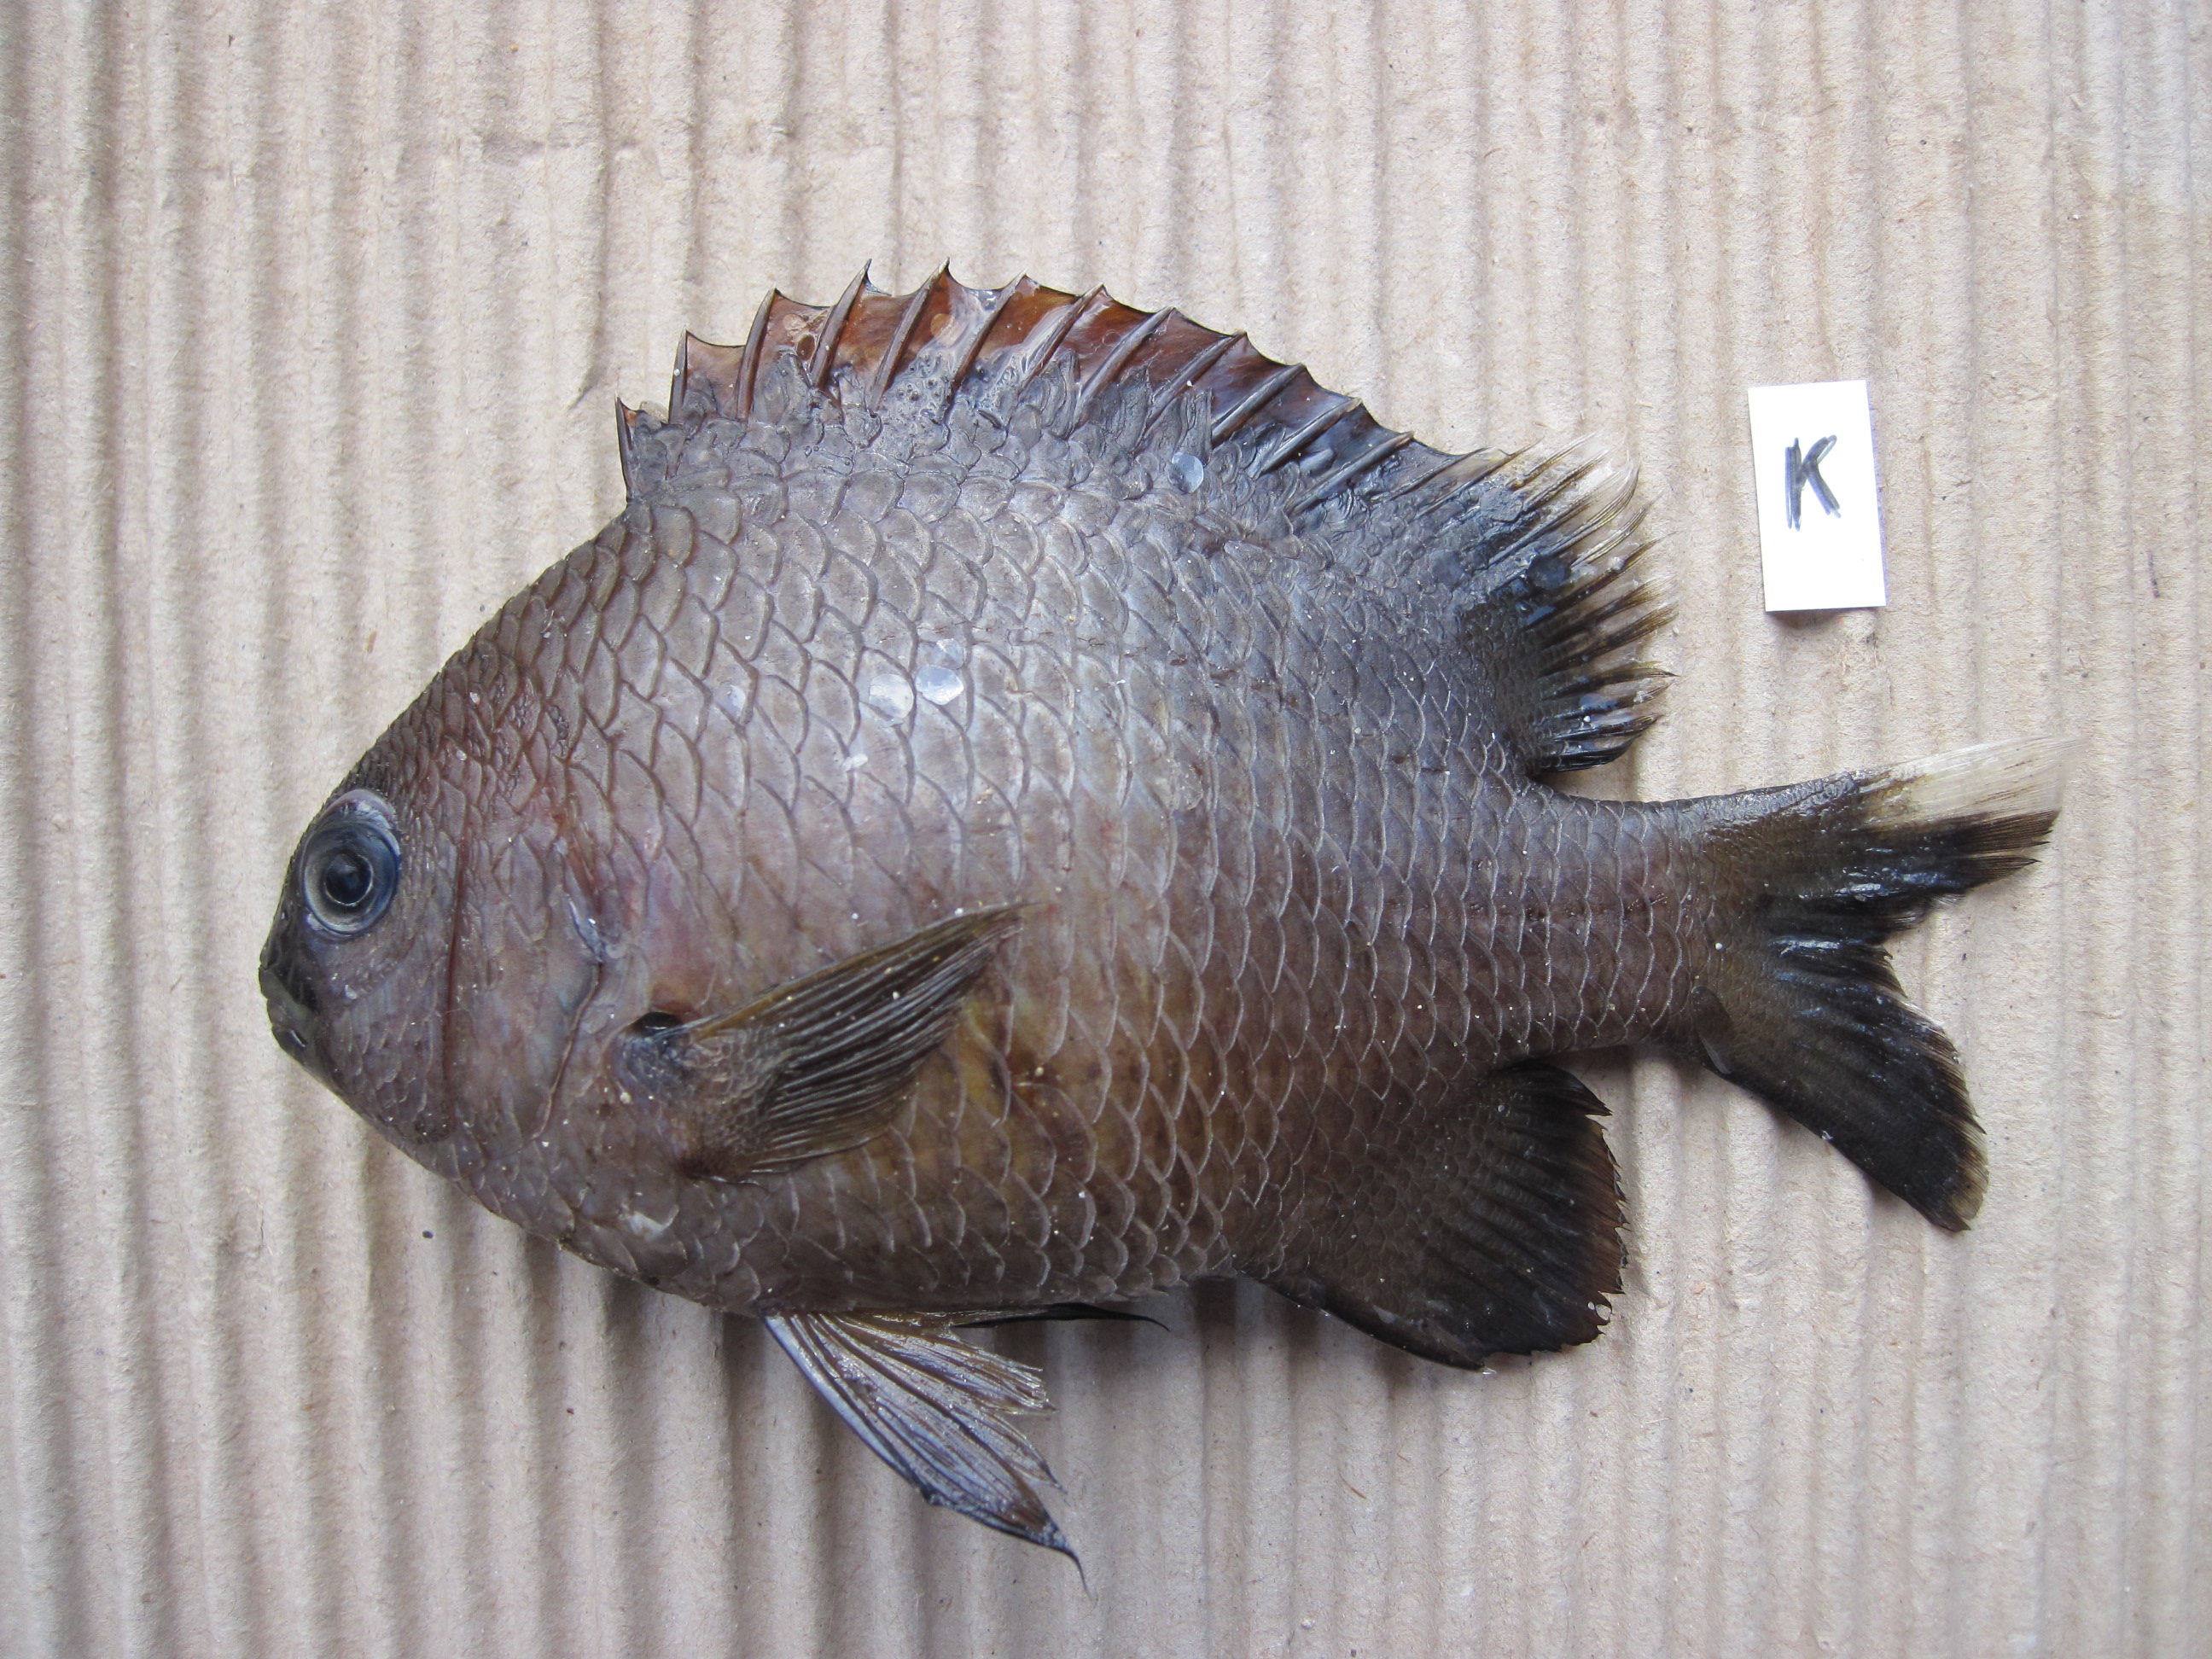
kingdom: Animalia
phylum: Chordata
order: Perciformes
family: Pomacentridae
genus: Plectroglyphidodon
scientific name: Plectroglyphidodon leucozonus
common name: White-band damsel
